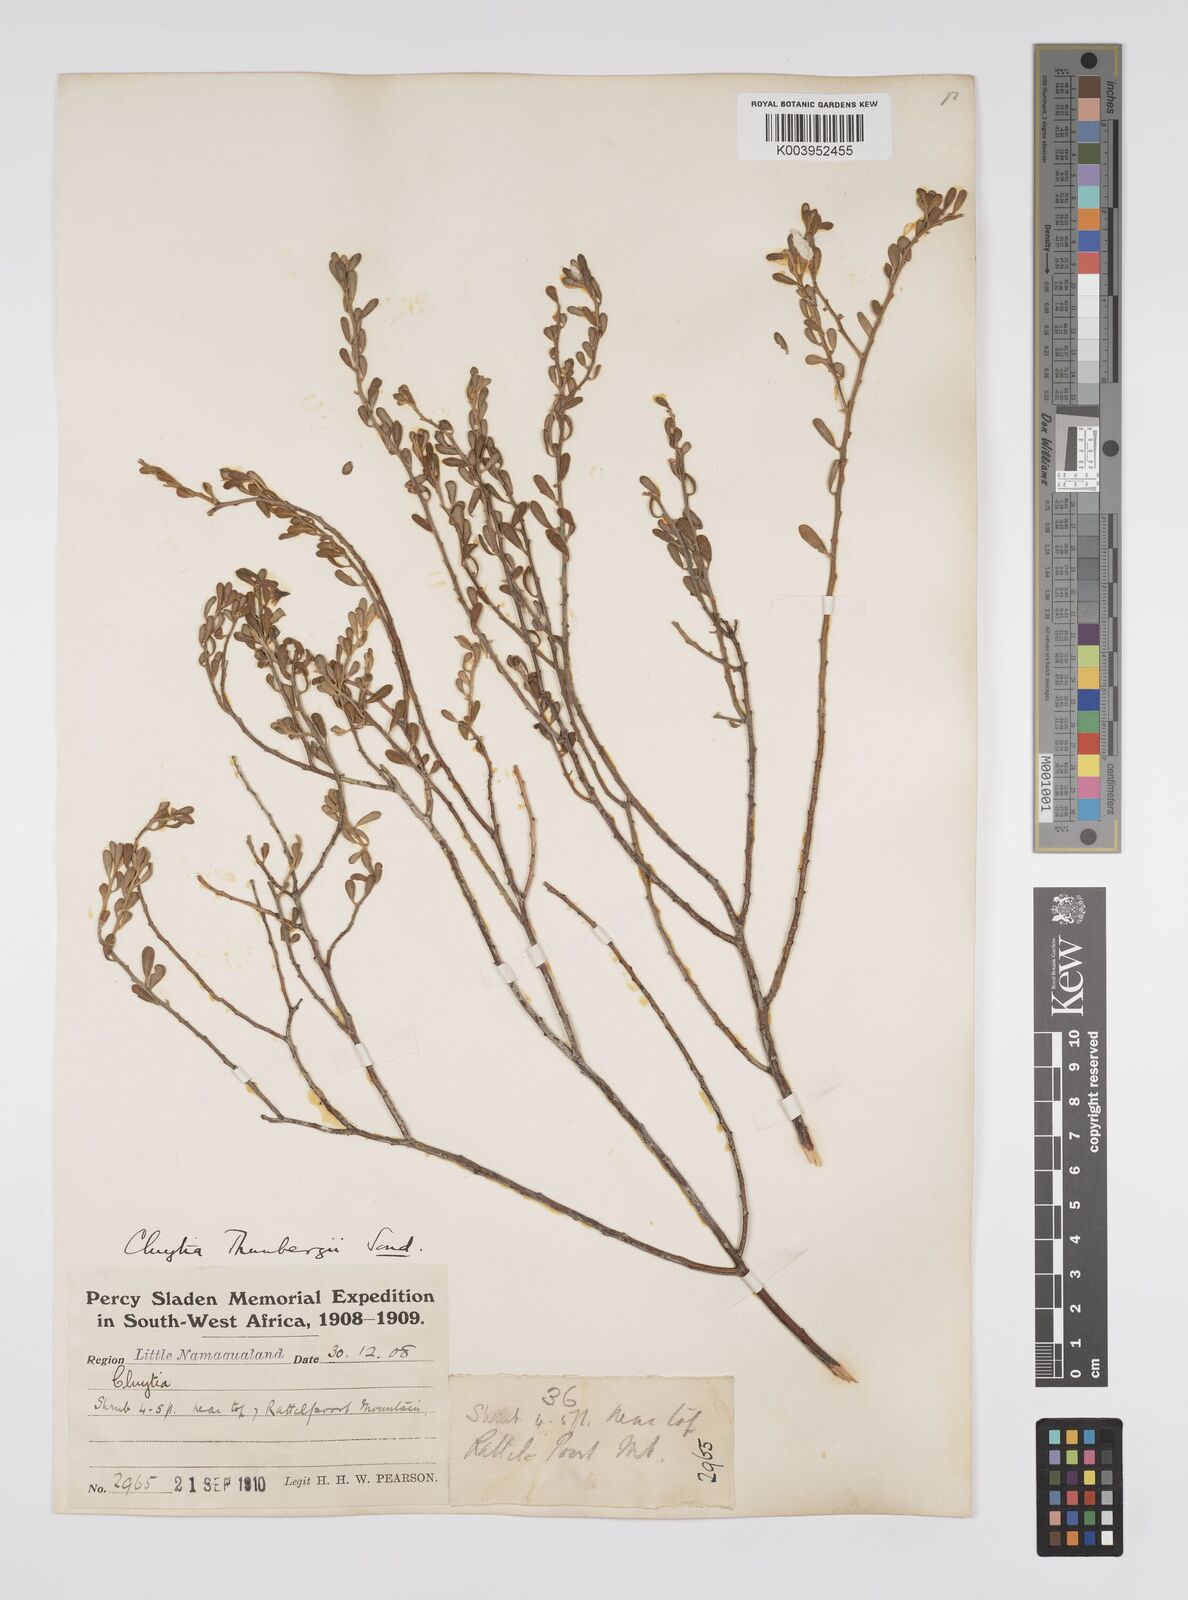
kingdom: Plantae
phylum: Tracheophyta
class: Magnoliopsida
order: Malpighiales
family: Peraceae
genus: Clutia
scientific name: Clutia thunbergii
